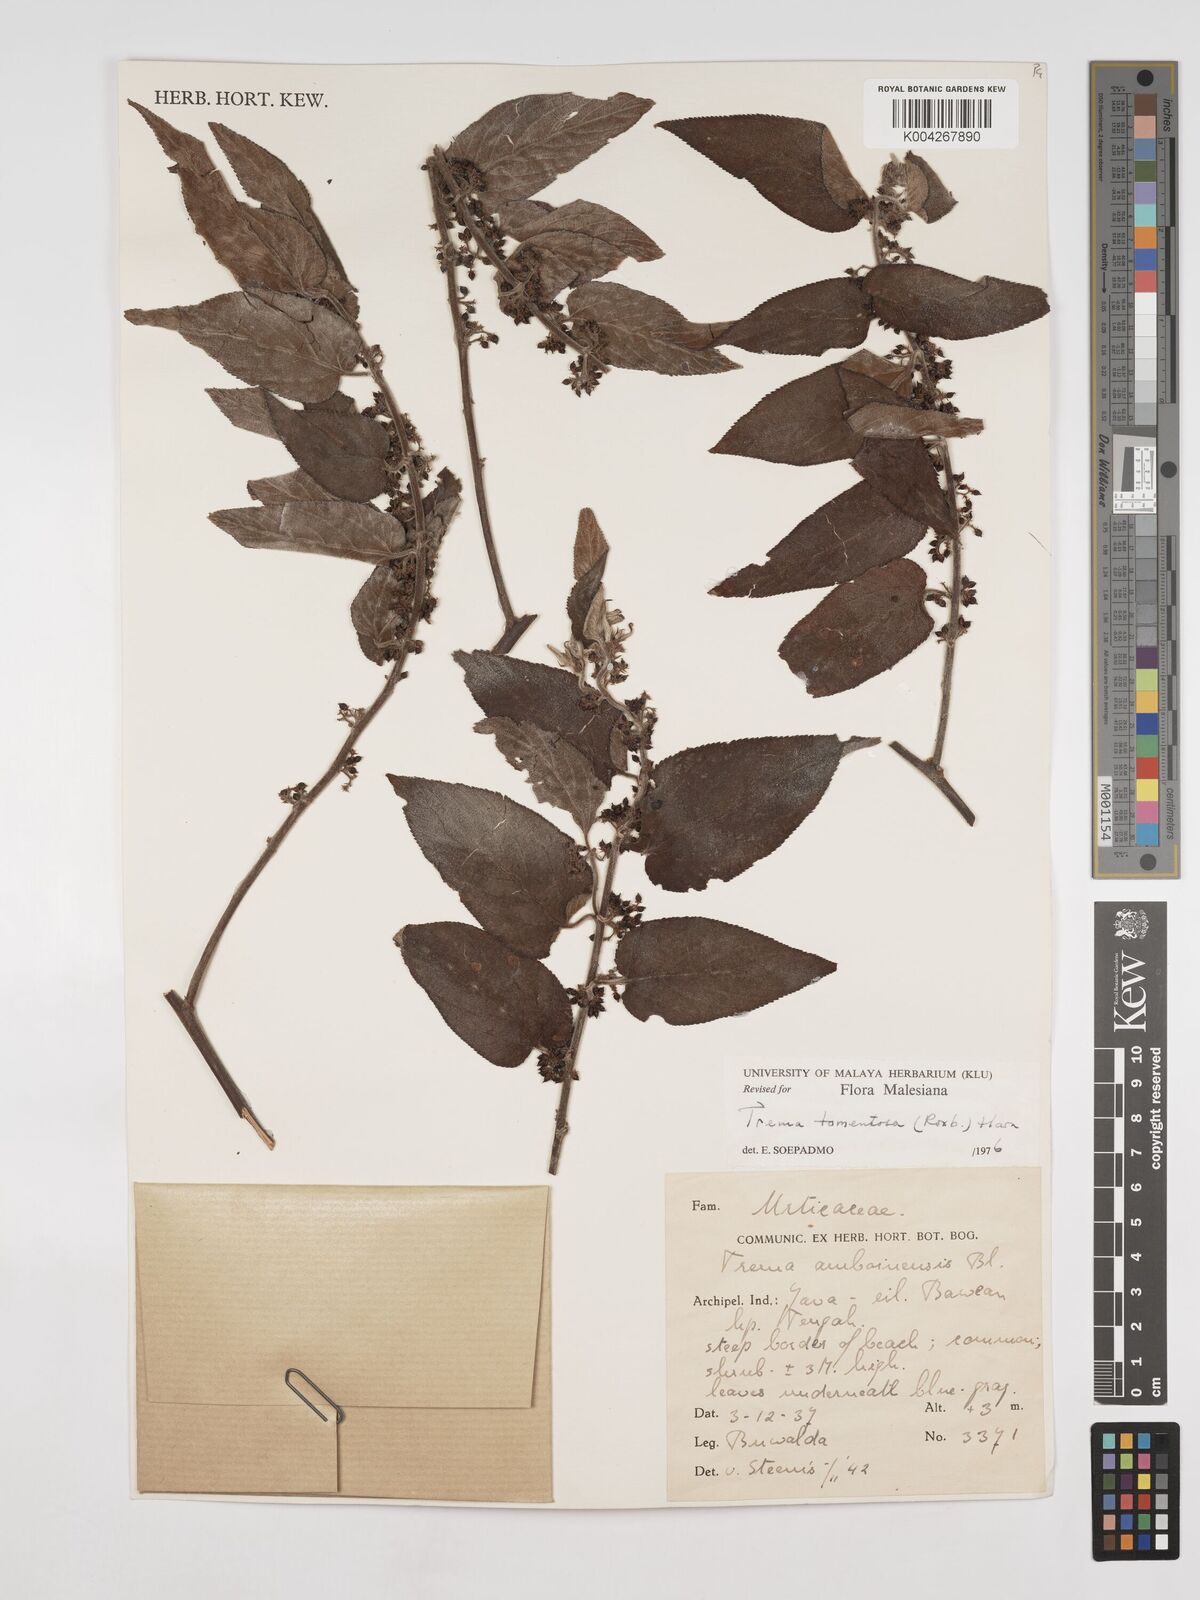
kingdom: Plantae
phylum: Tracheophyta
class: Magnoliopsida
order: Rosales
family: Cannabaceae
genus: Trema
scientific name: Trema tomentosum
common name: Peach-leaf-poisonbush
